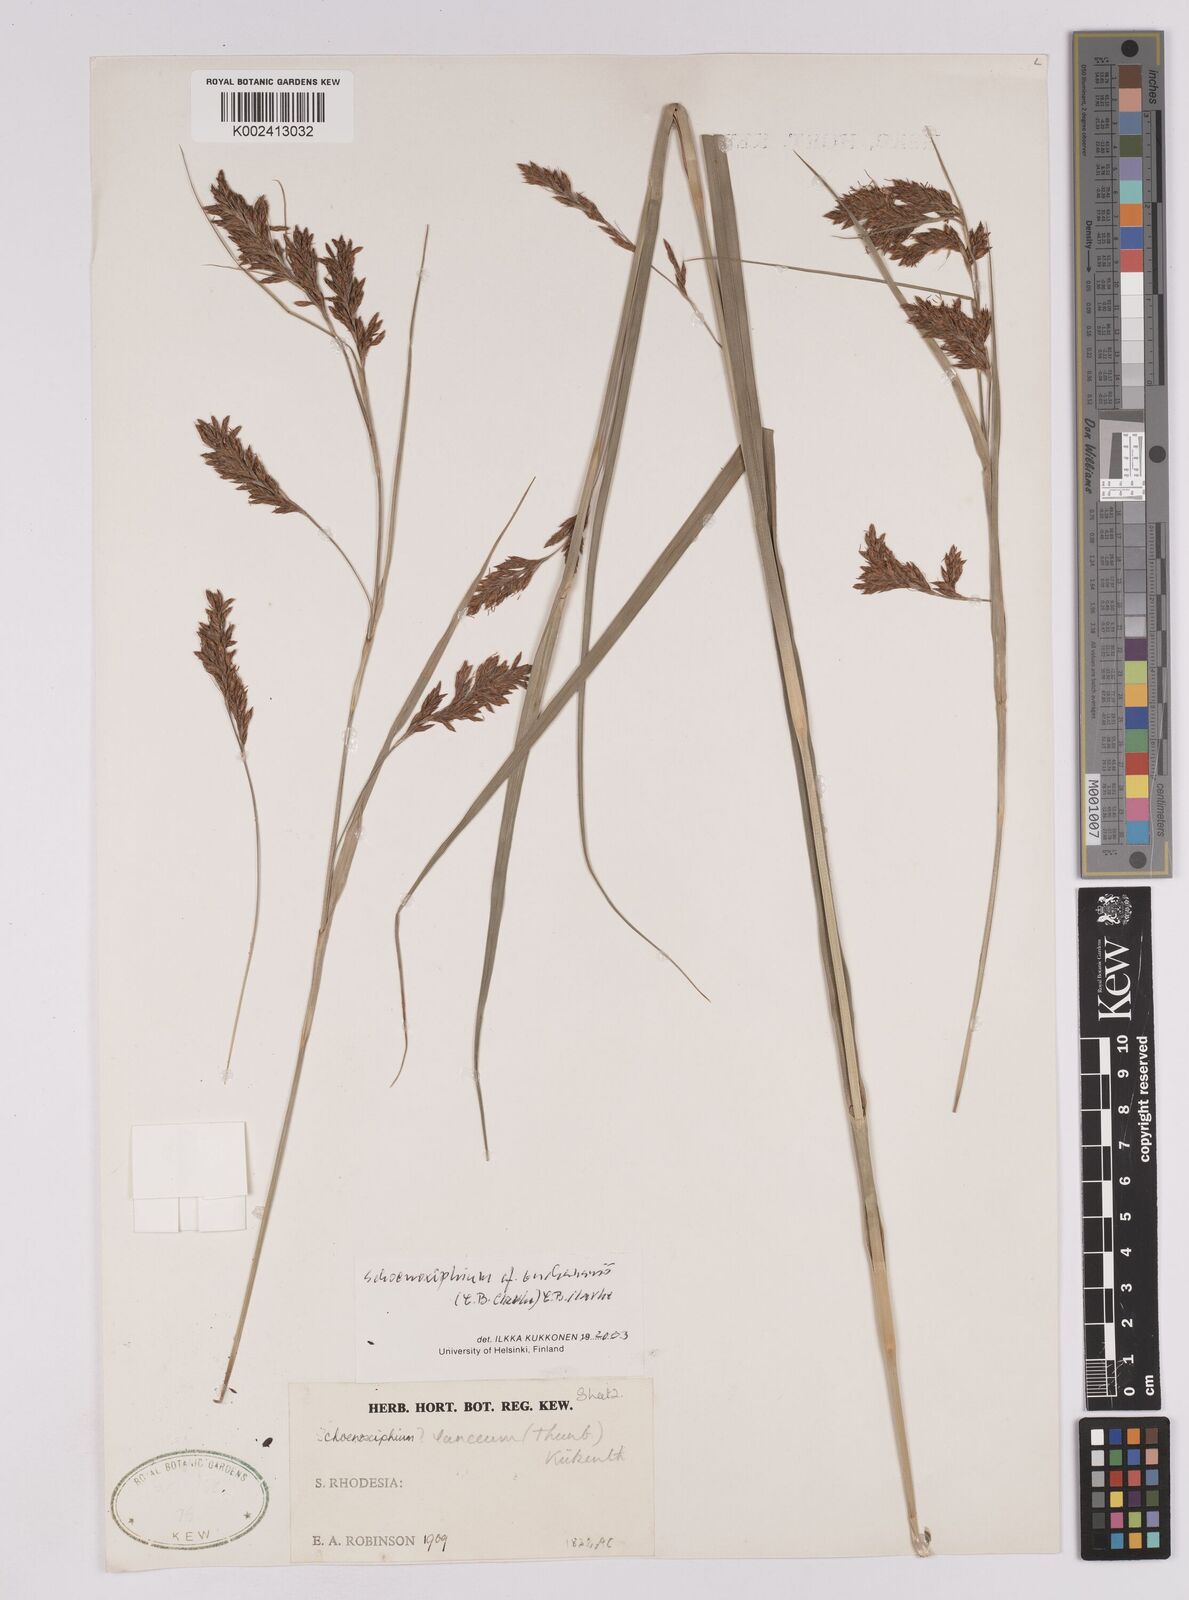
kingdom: Plantae
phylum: Tracheophyta
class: Liliopsida
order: Poales
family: Cyperaceae
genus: Carex
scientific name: Carex kukkoneniana
